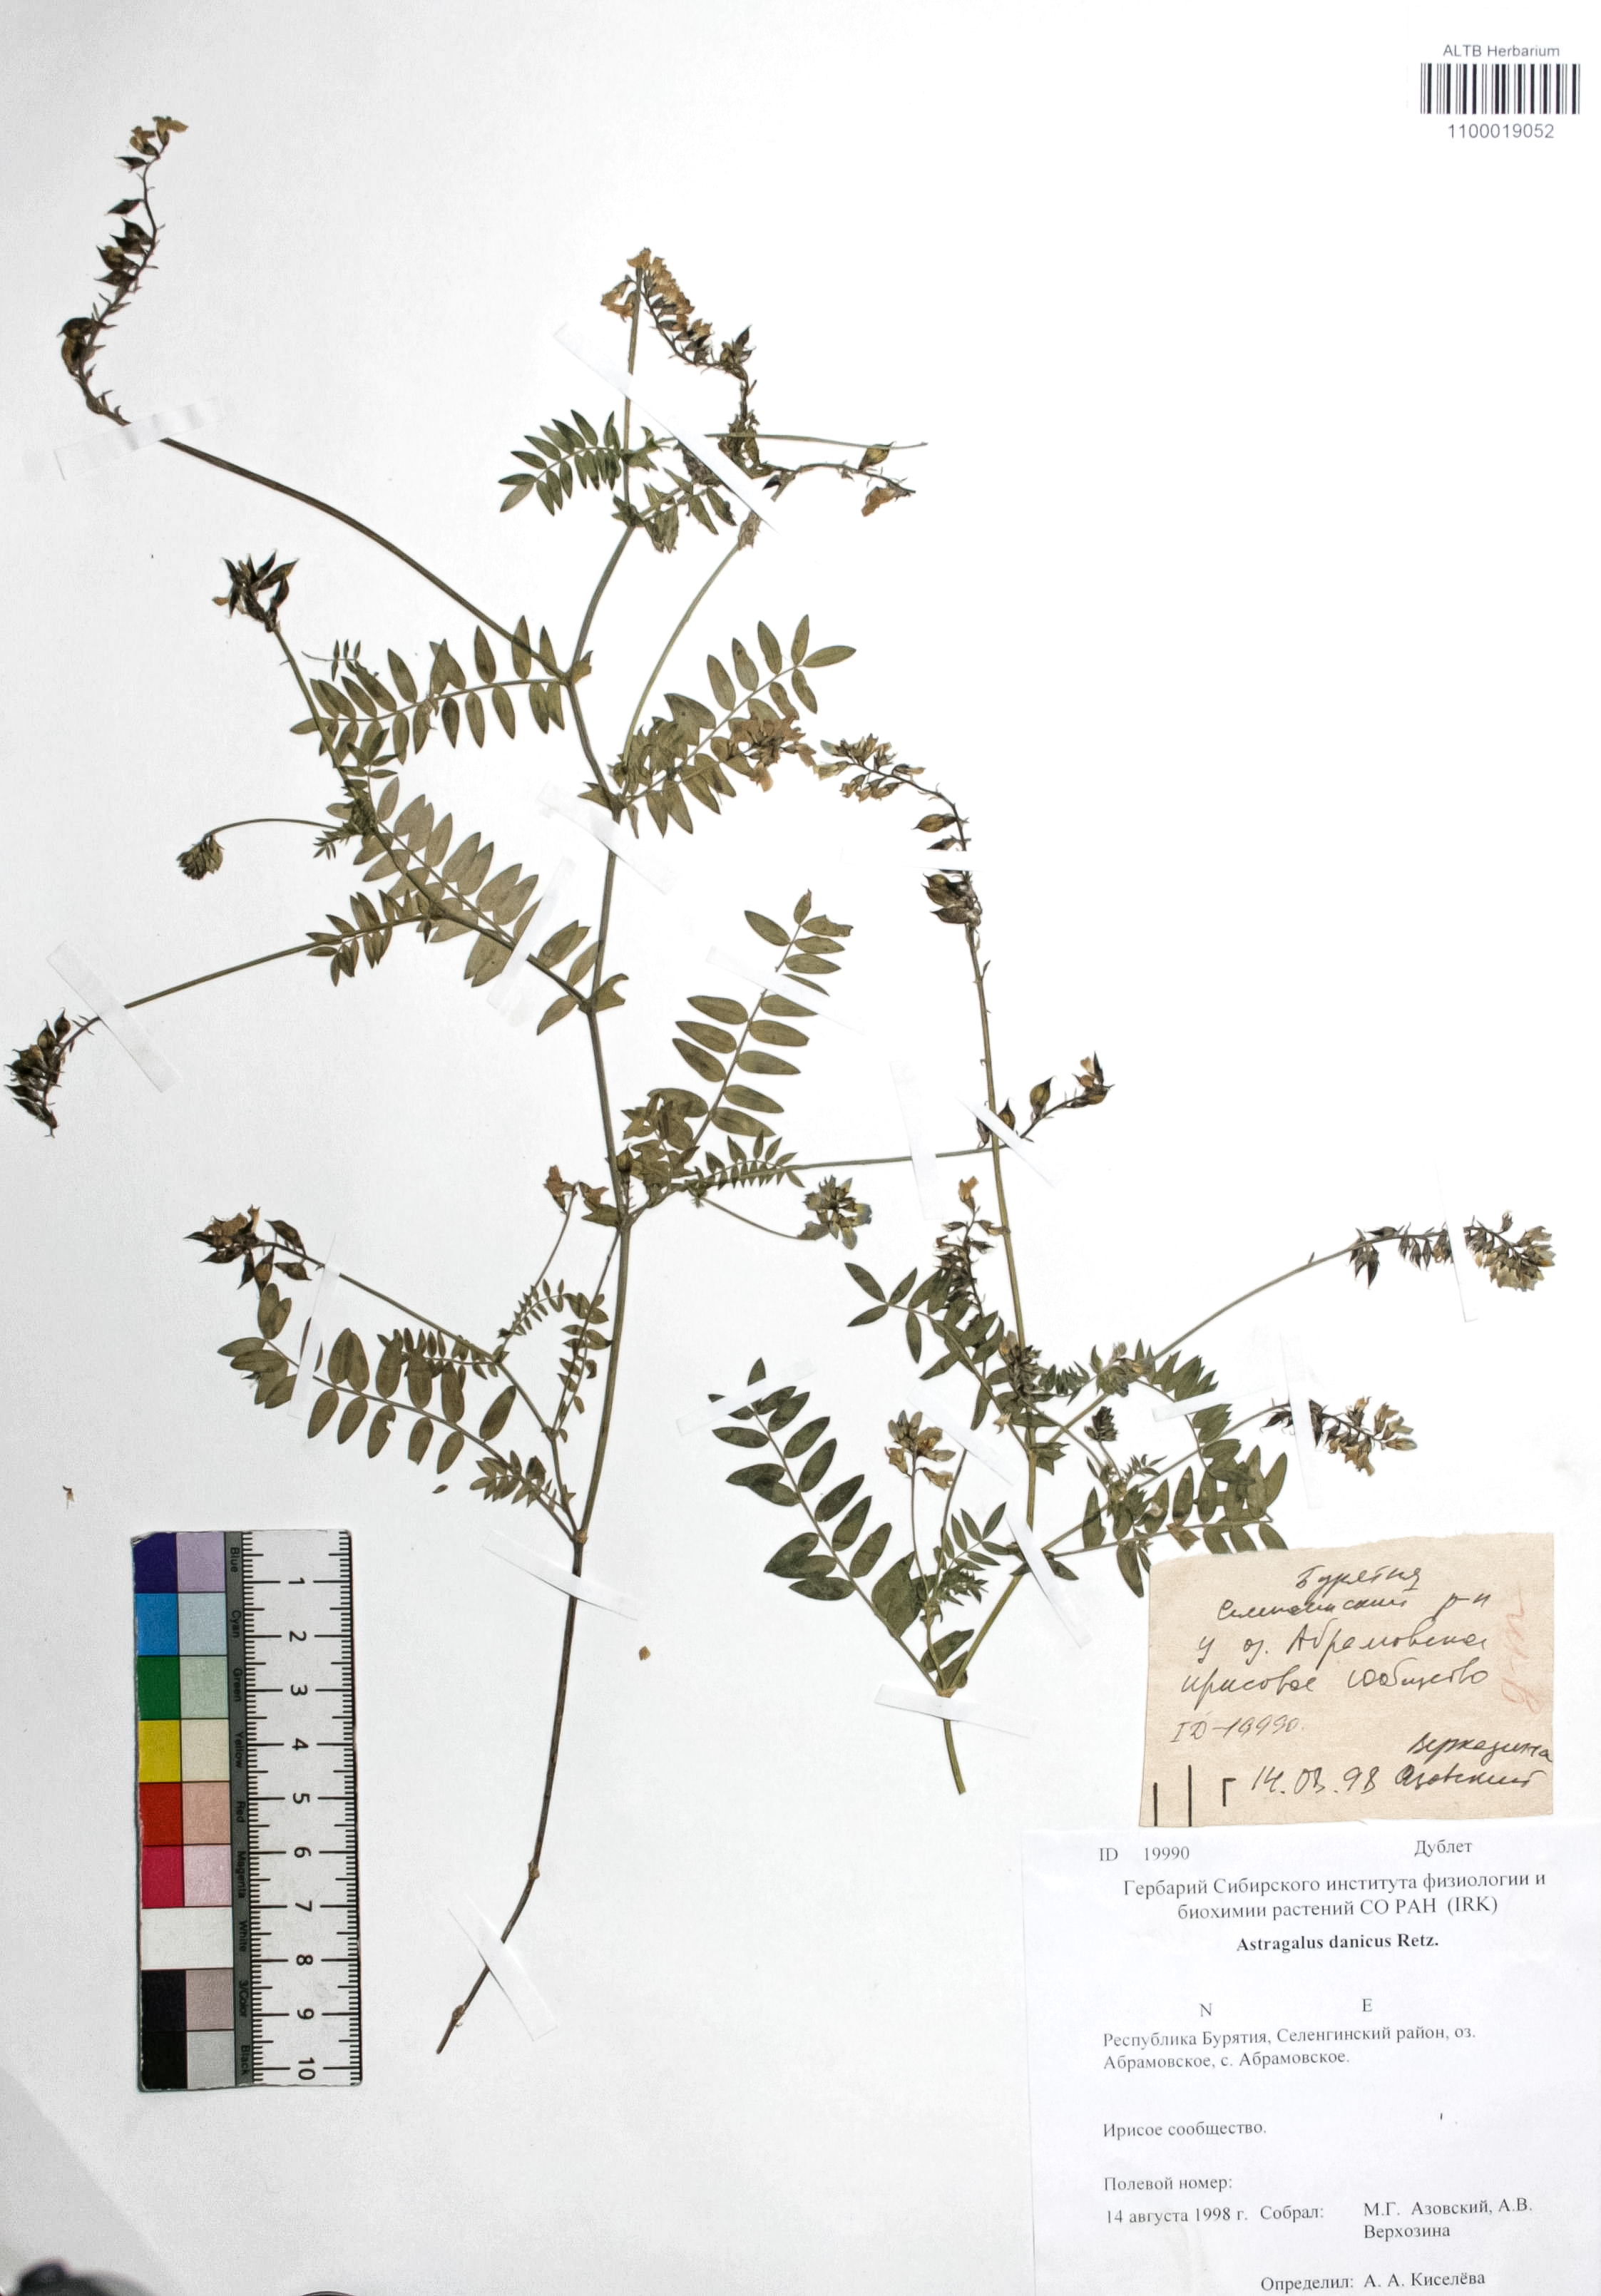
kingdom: Plantae
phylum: Tracheophyta
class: Magnoliopsida
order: Fabales
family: Fabaceae
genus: Astragalus
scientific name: Astragalus danicus
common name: Purple milk-vetch
